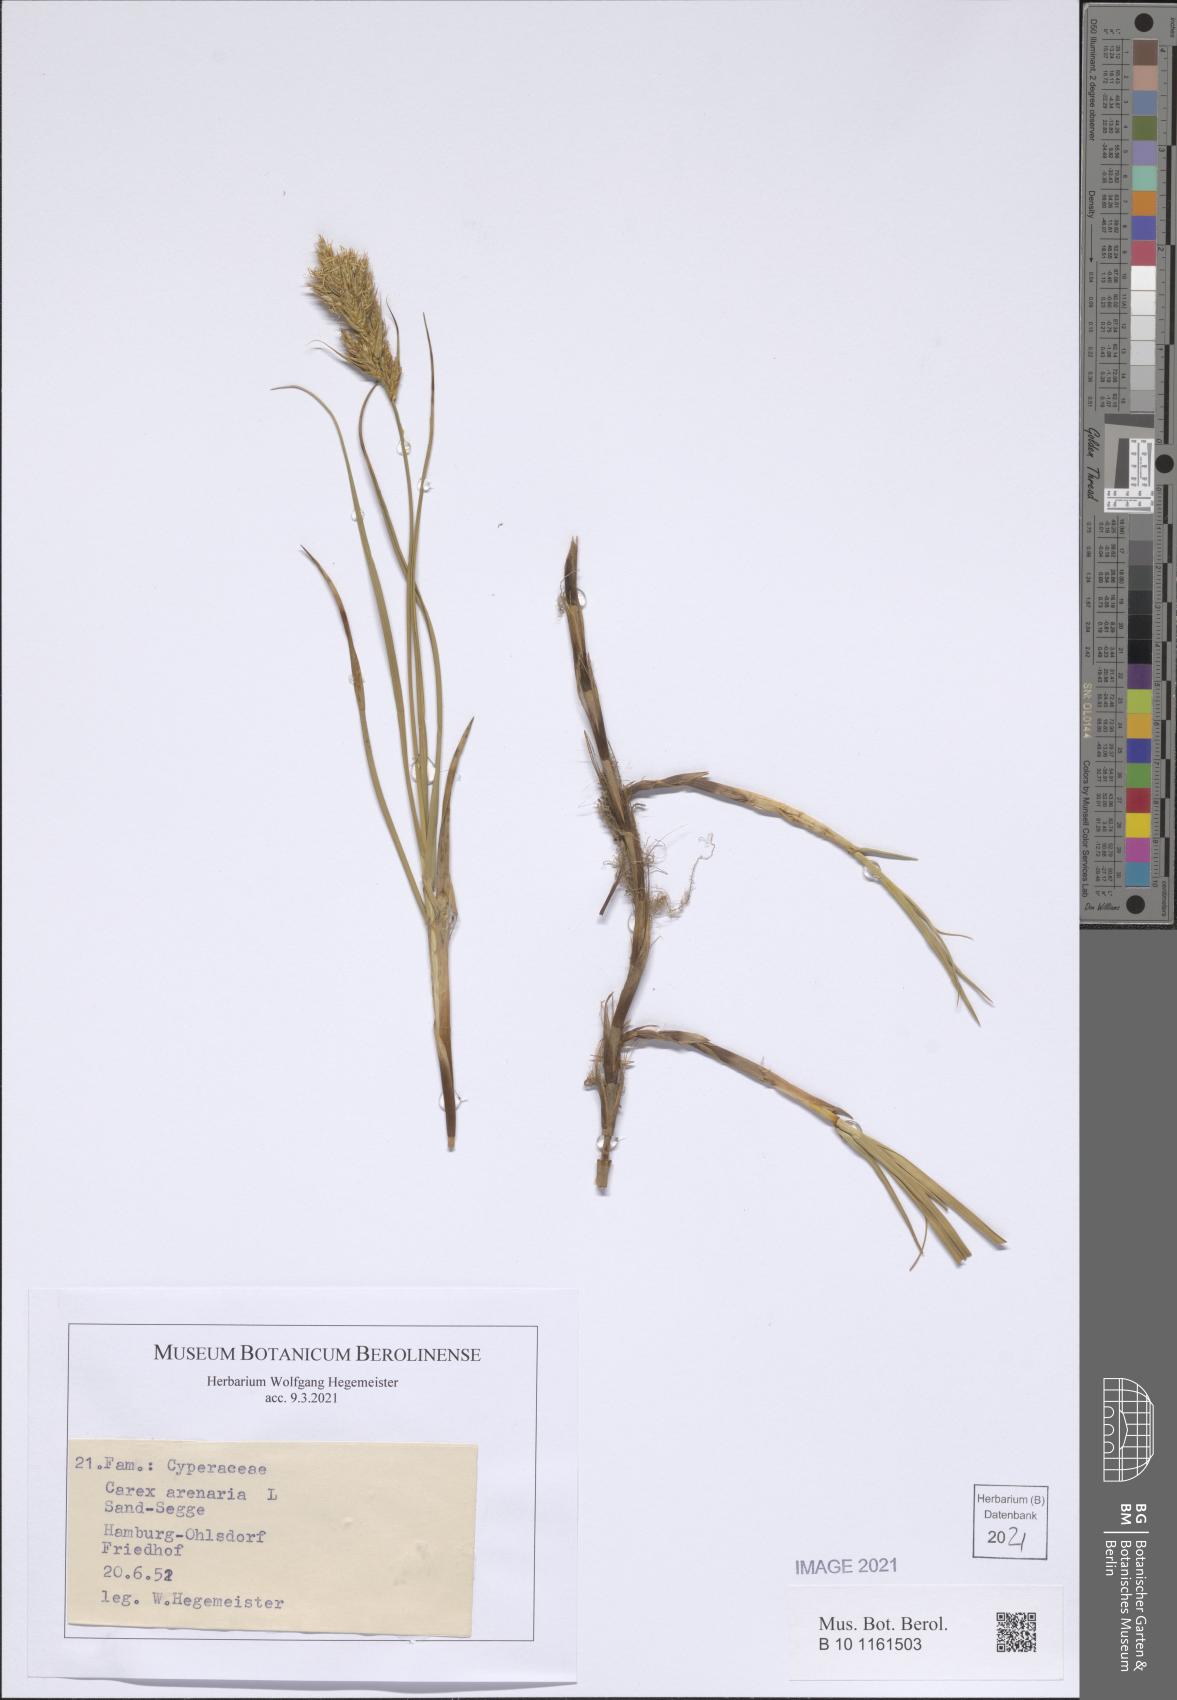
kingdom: Plantae
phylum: Tracheophyta
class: Liliopsida
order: Poales
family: Cyperaceae
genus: Carex
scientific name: Carex arenaria
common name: Sand sedge
